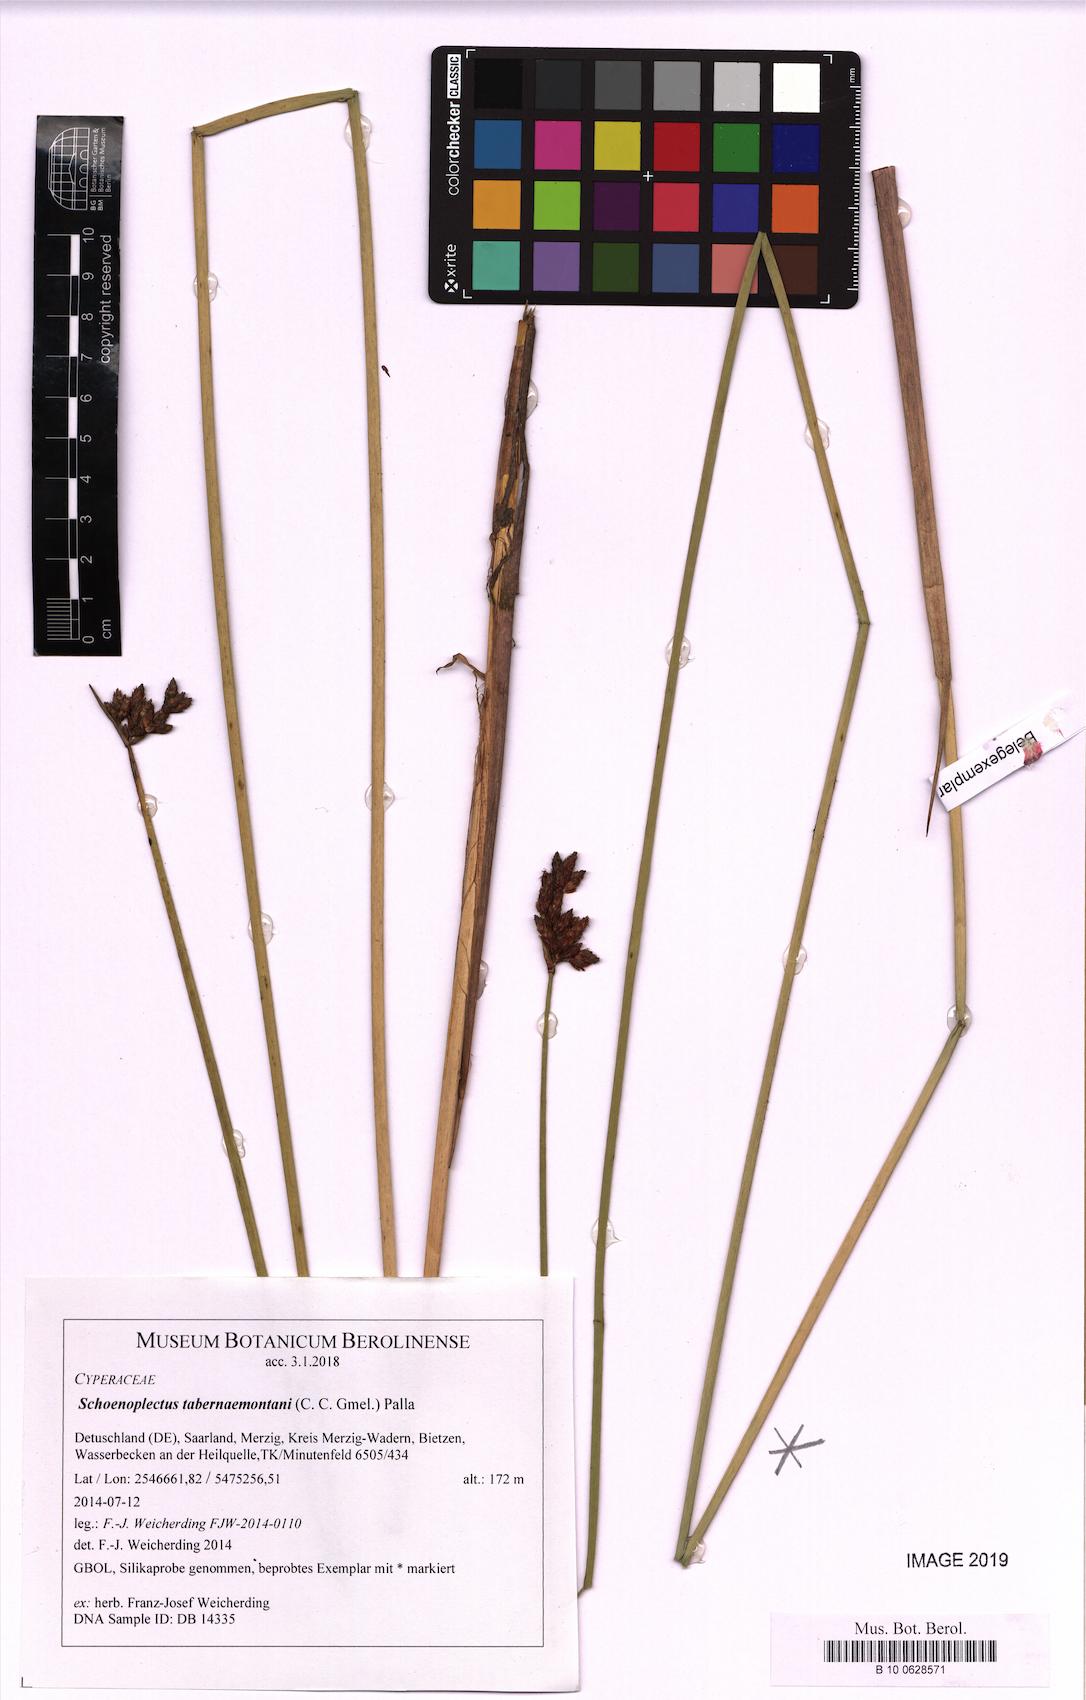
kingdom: Plantae
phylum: Tracheophyta
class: Liliopsida
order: Poales
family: Cyperaceae
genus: Schoenoplectus
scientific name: Schoenoplectus tabernaemontani
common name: Grey club-rush
